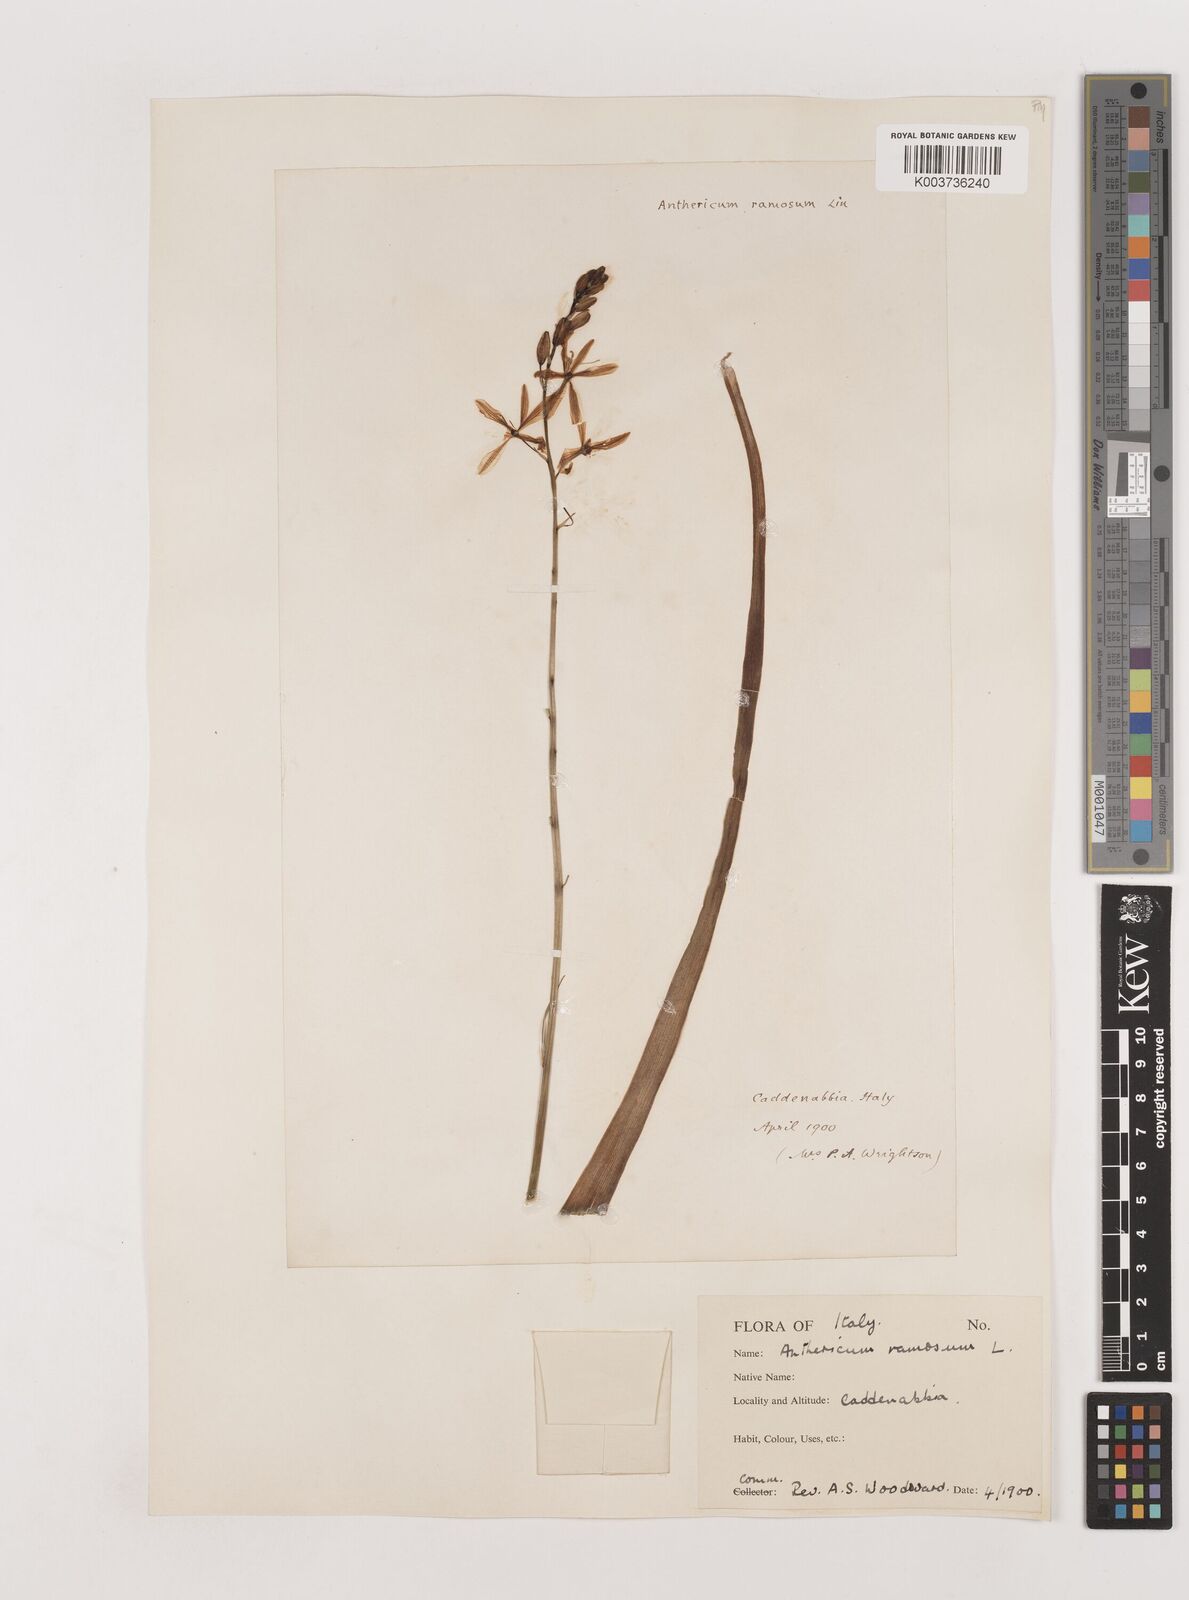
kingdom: Plantae
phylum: Tracheophyta
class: Liliopsida
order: Asparagales
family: Asparagaceae
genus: Anthericum
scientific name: Anthericum
